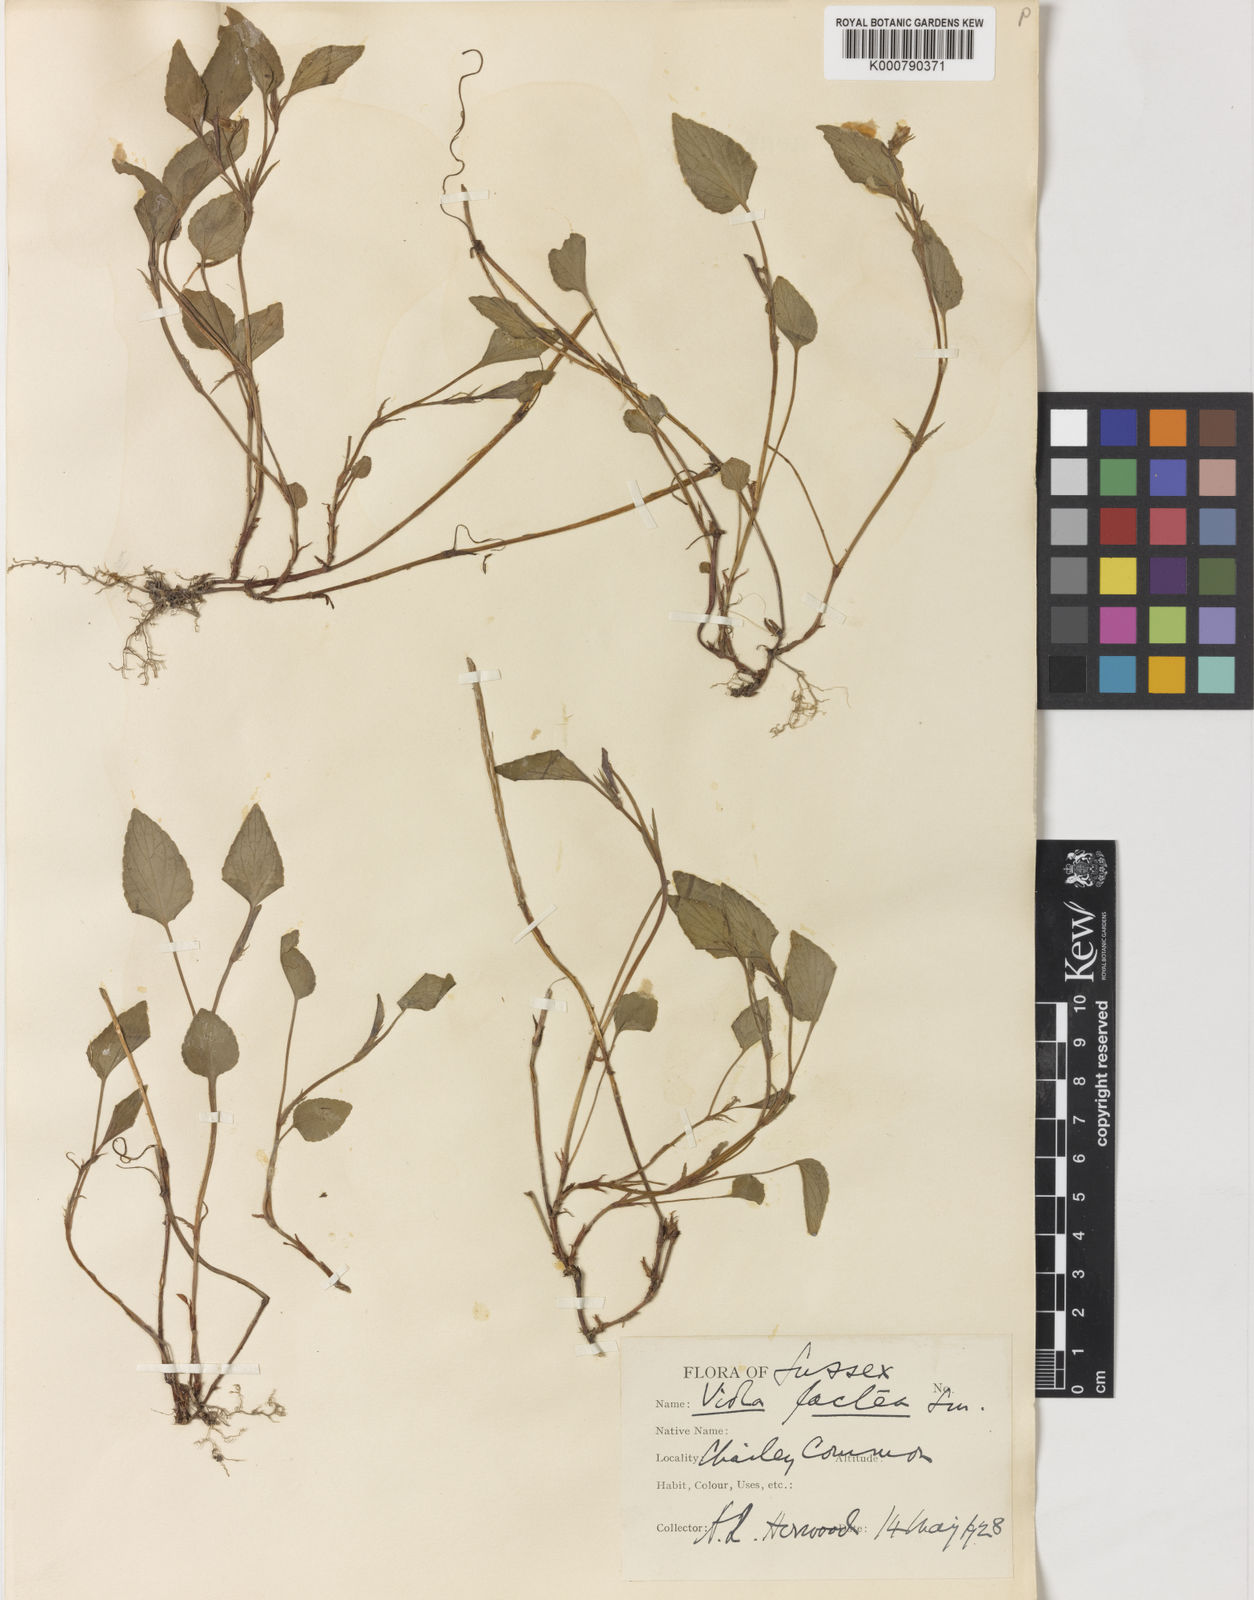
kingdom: Plantae
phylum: Tracheophyta
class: Magnoliopsida
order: Malpighiales
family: Violaceae
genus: Viola
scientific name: Viola lactea
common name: Pale dog-violet
